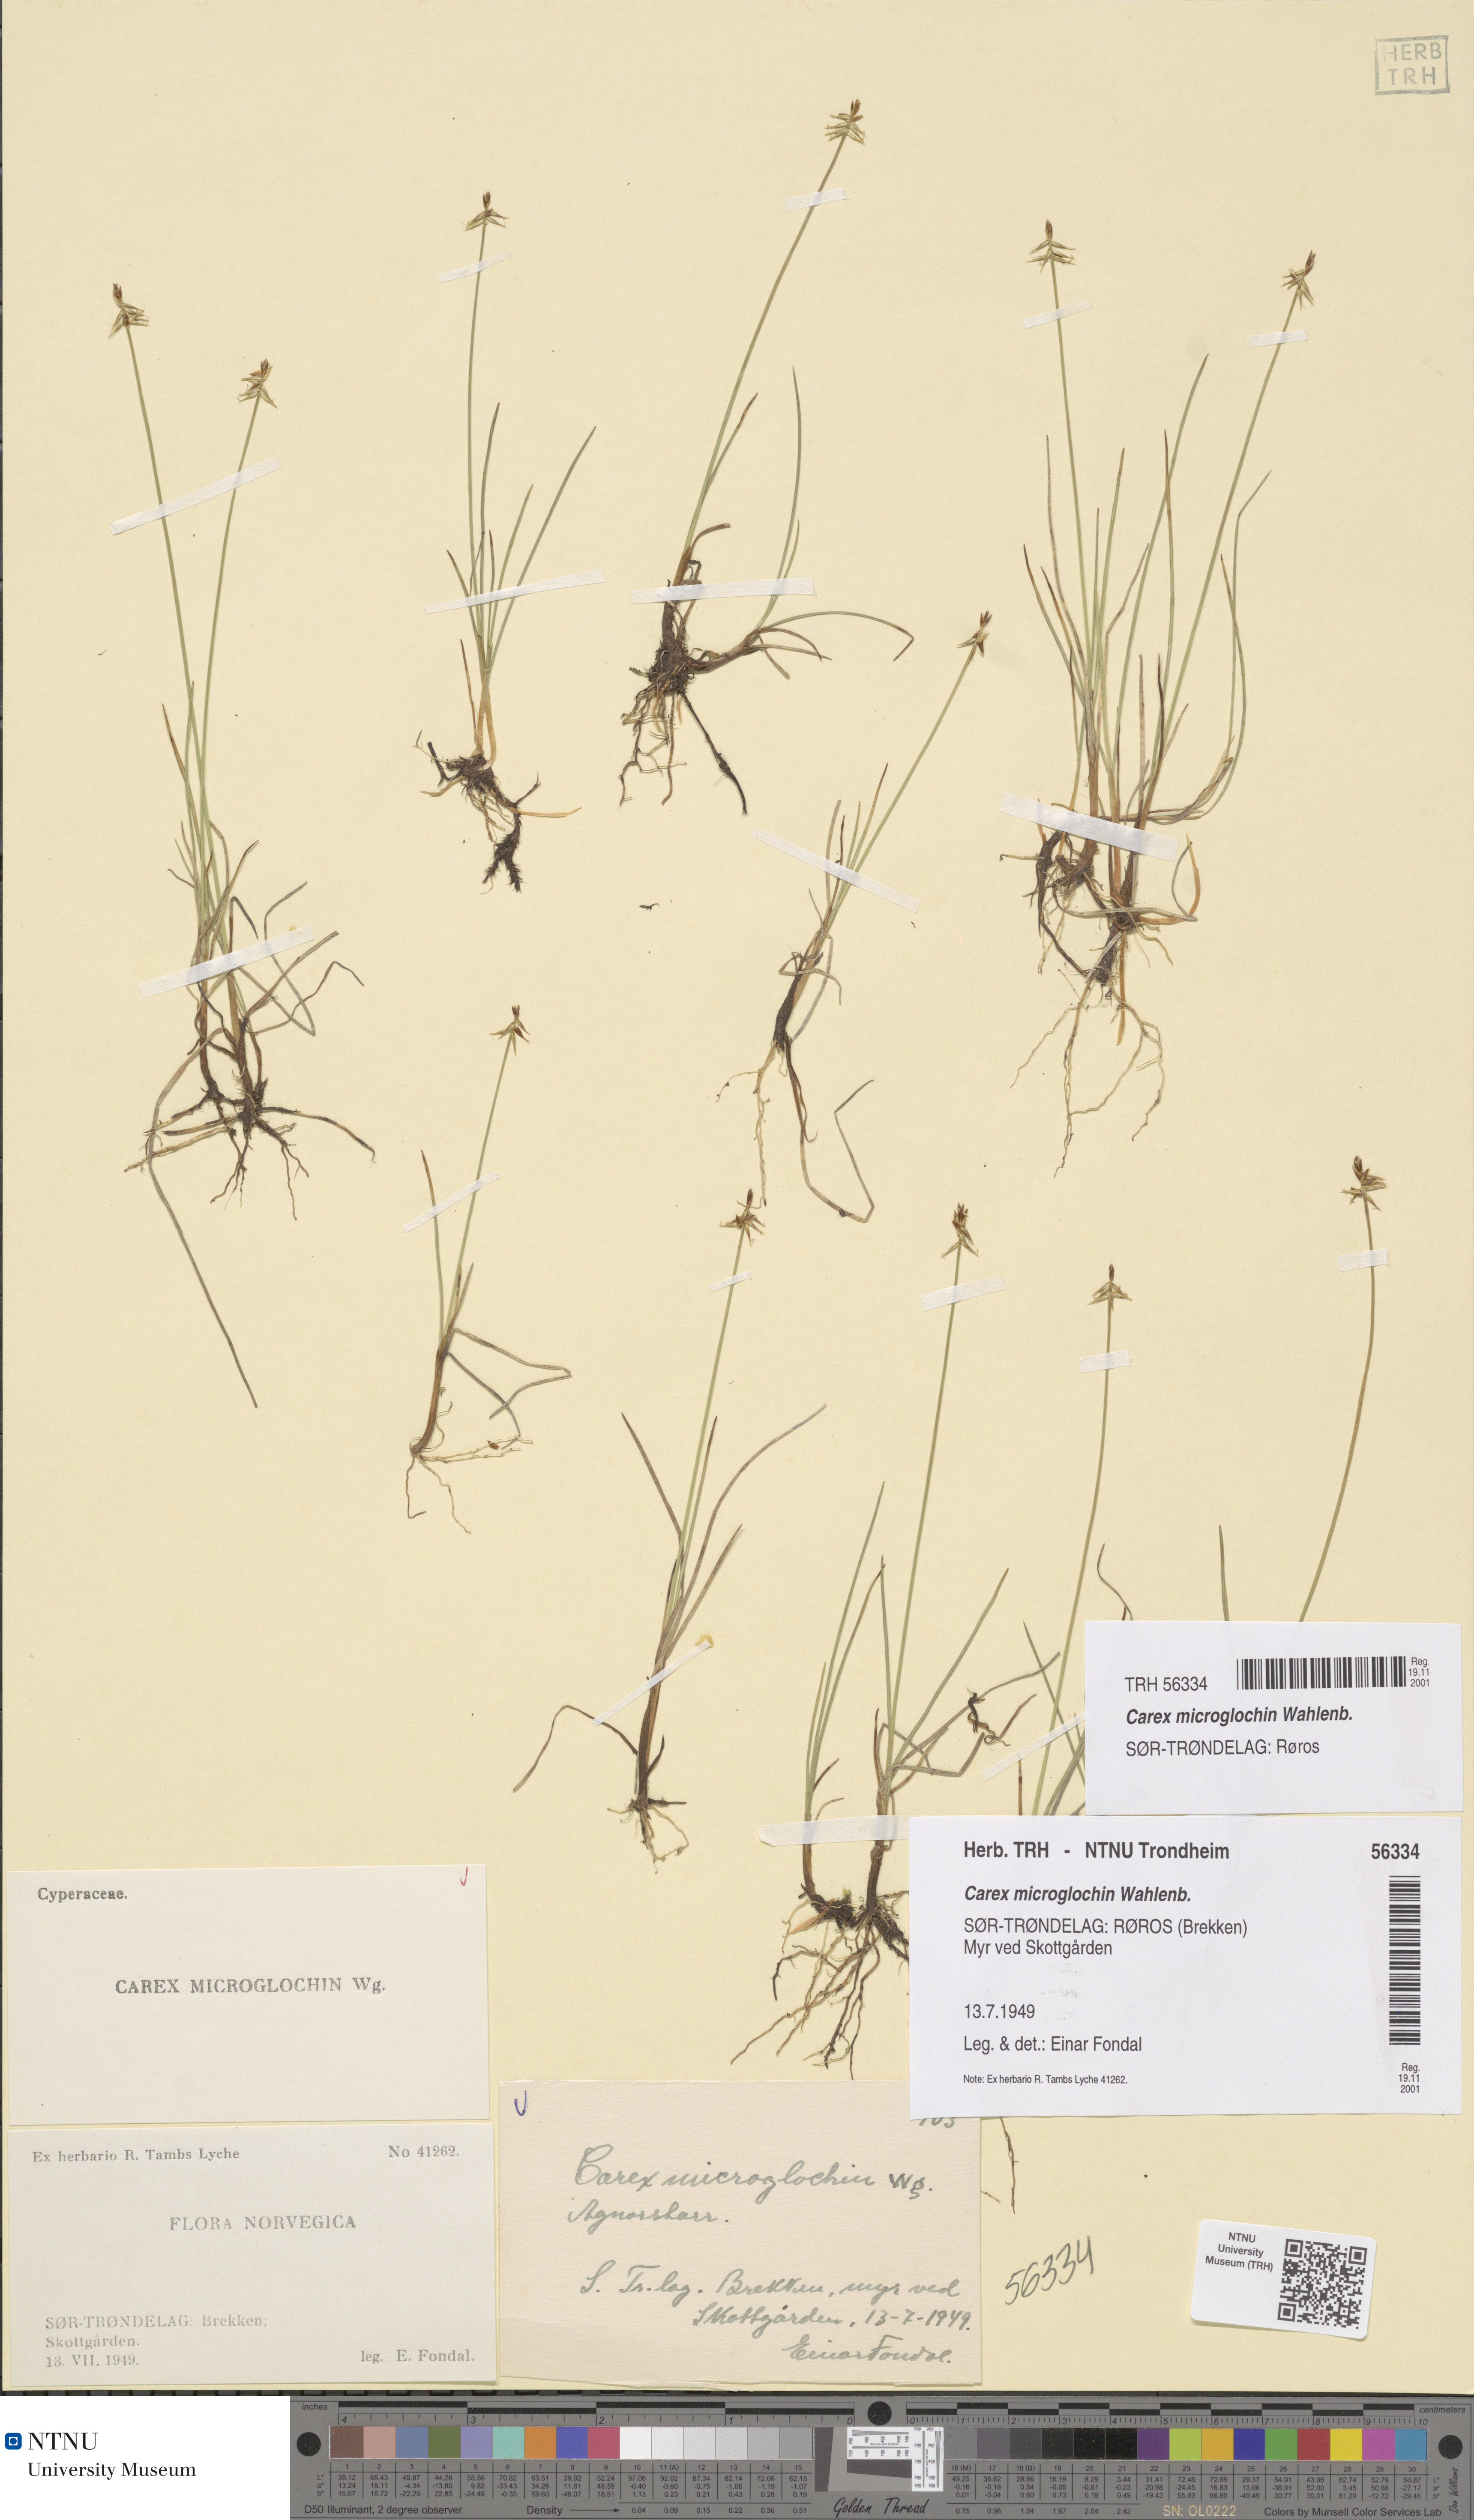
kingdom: Plantae
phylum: Tracheophyta
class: Liliopsida
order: Poales
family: Cyperaceae
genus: Carex
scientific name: Carex microglochin
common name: Bristle sedge
